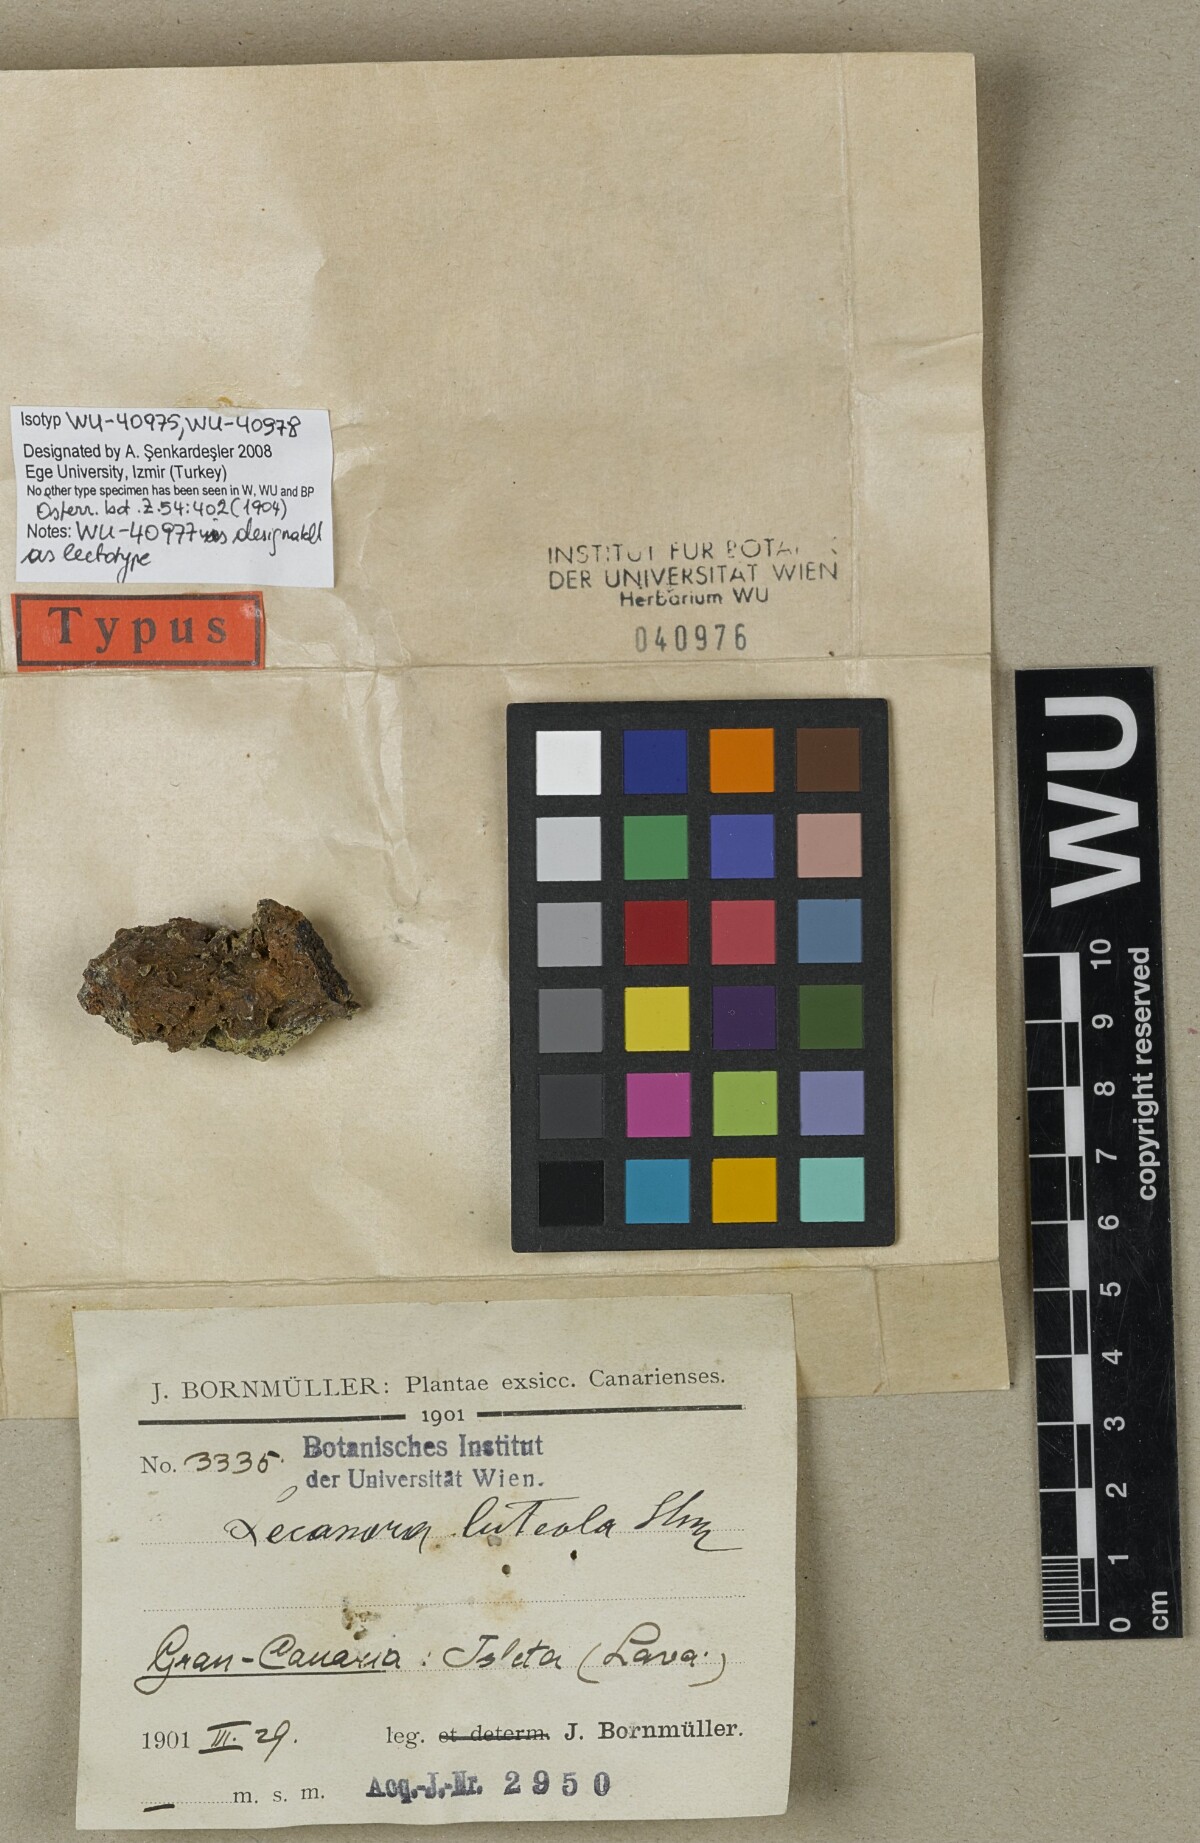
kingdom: Fungi
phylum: Ascomycota
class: Lecanoromycetes
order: Lecanorales
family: Lecanoraceae
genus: Lecanora
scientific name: Lecanora
